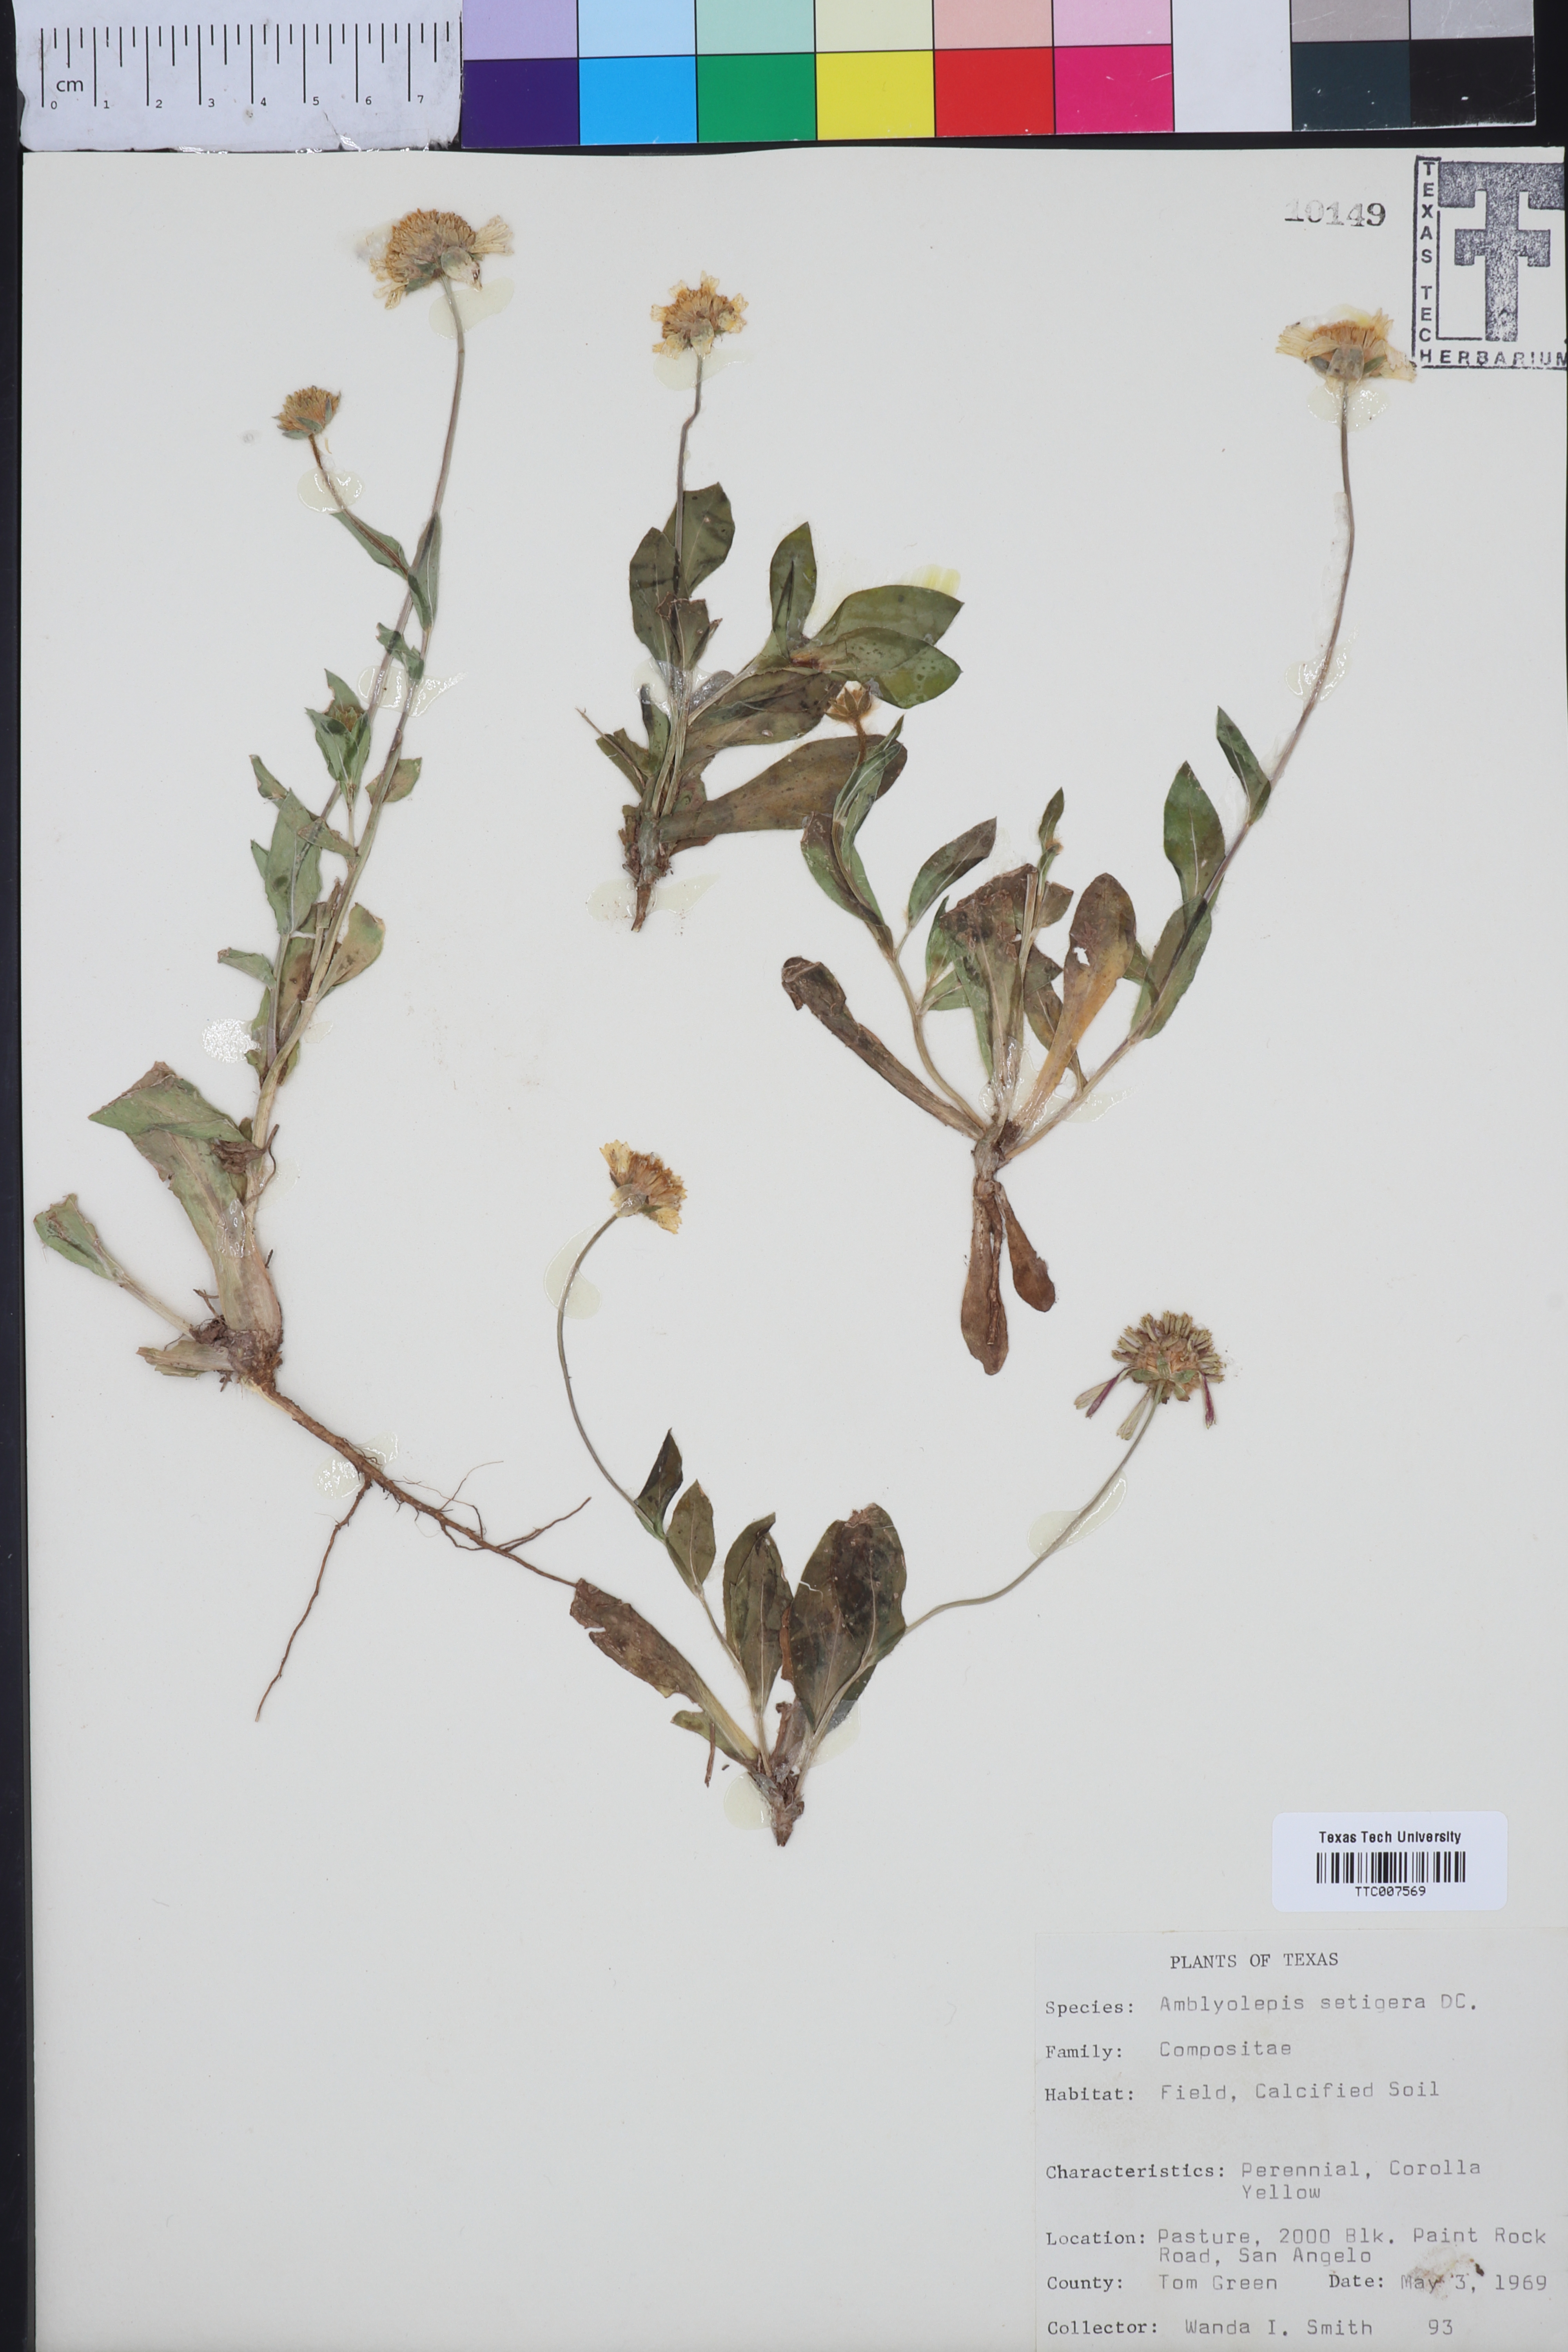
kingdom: Plantae
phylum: Tracheophyta
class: Magnoliopsida
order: Asterales
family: Asteraceae
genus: Amblyolepis
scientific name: Amblyolepis setigera
